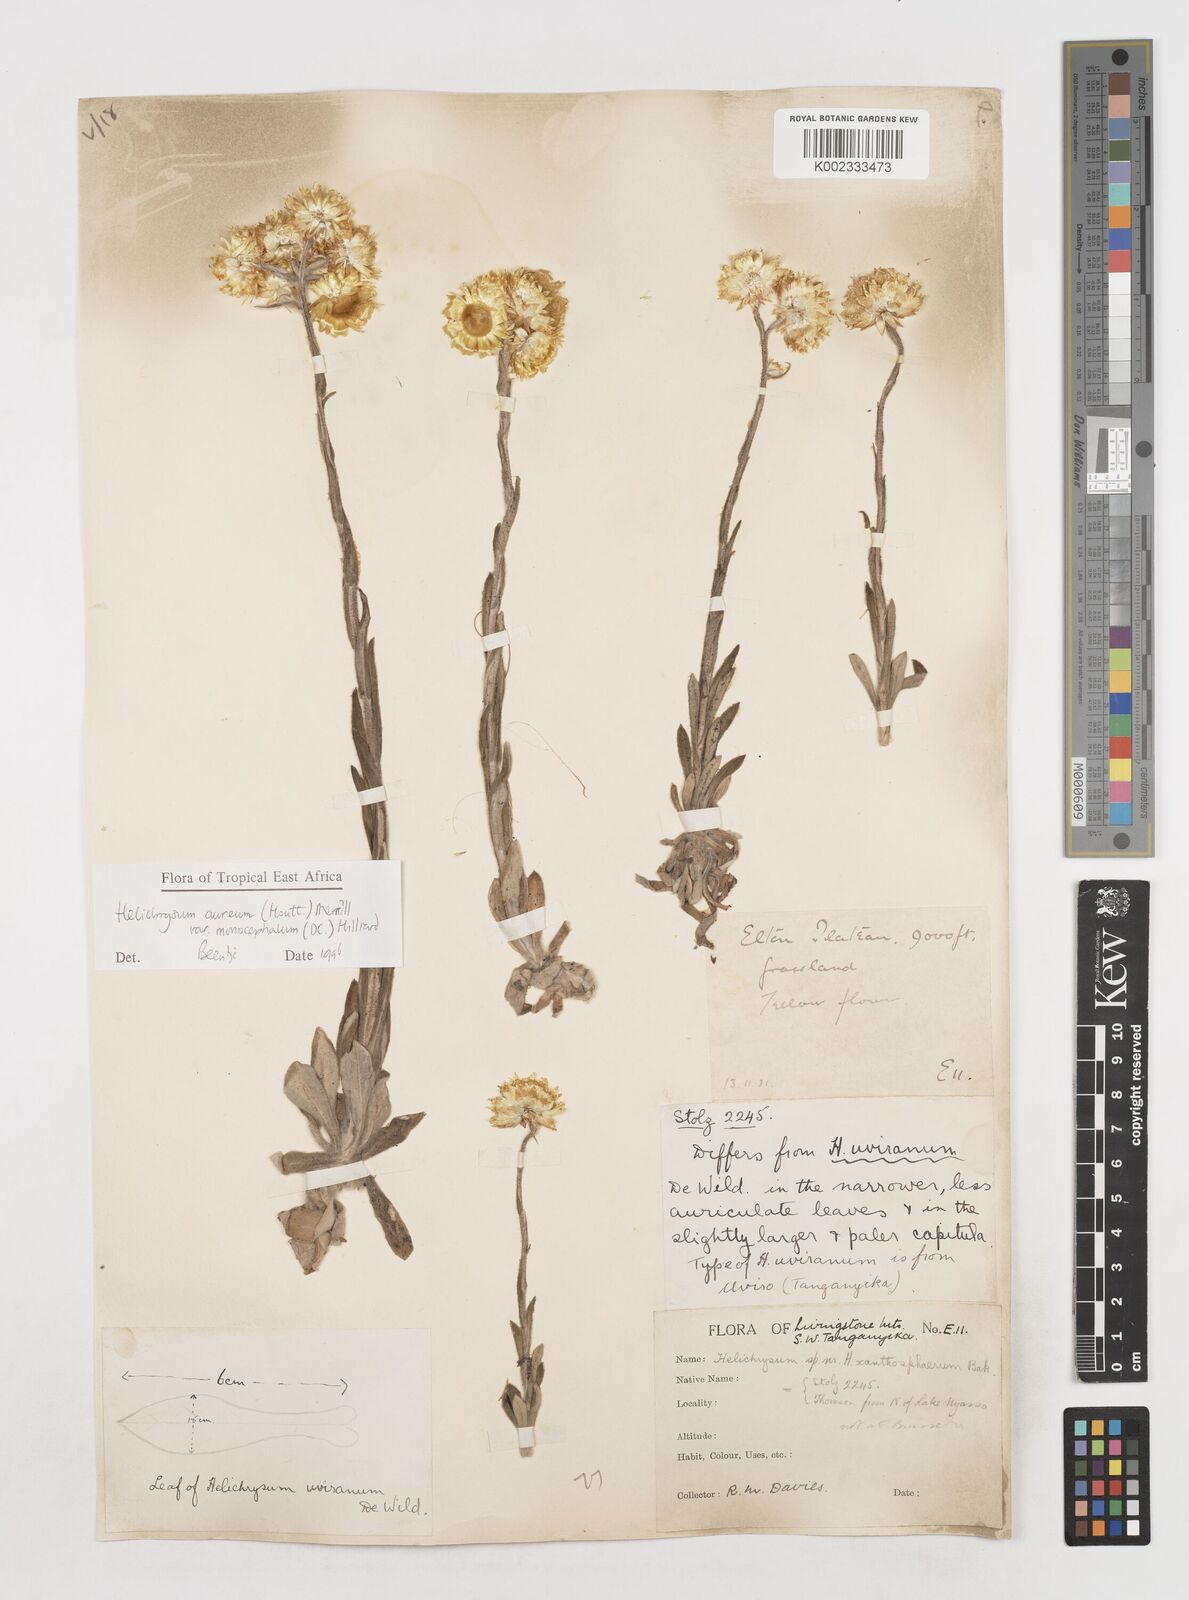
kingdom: Plantae
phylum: Tracheophyta
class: Magnoliopsida
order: Asterales
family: Asteraceae
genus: Helichrysum
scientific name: Helichrysum aureum
